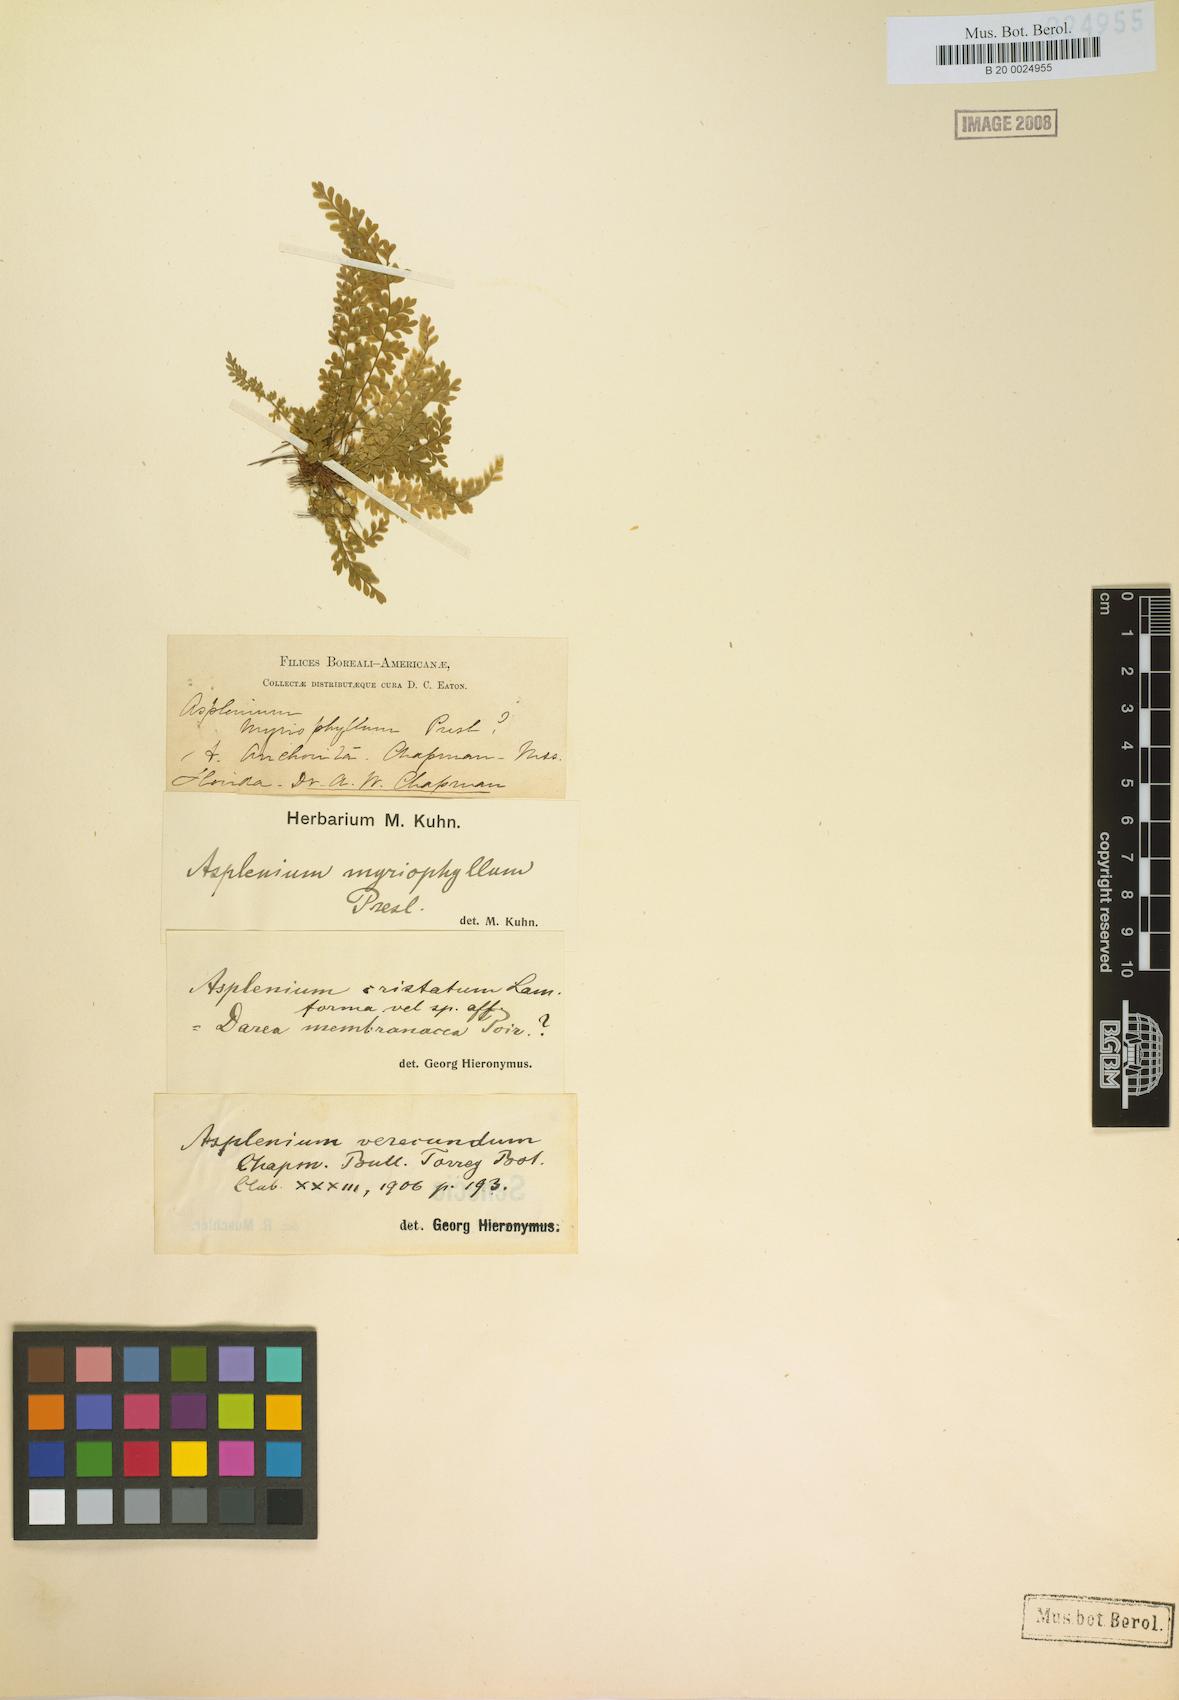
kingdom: Plantae
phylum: Tracheophyta
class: Polypodiopsida
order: Polypodiales
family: Aspleniaceae
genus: Asplenium
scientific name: Asplenium myriophyllum
